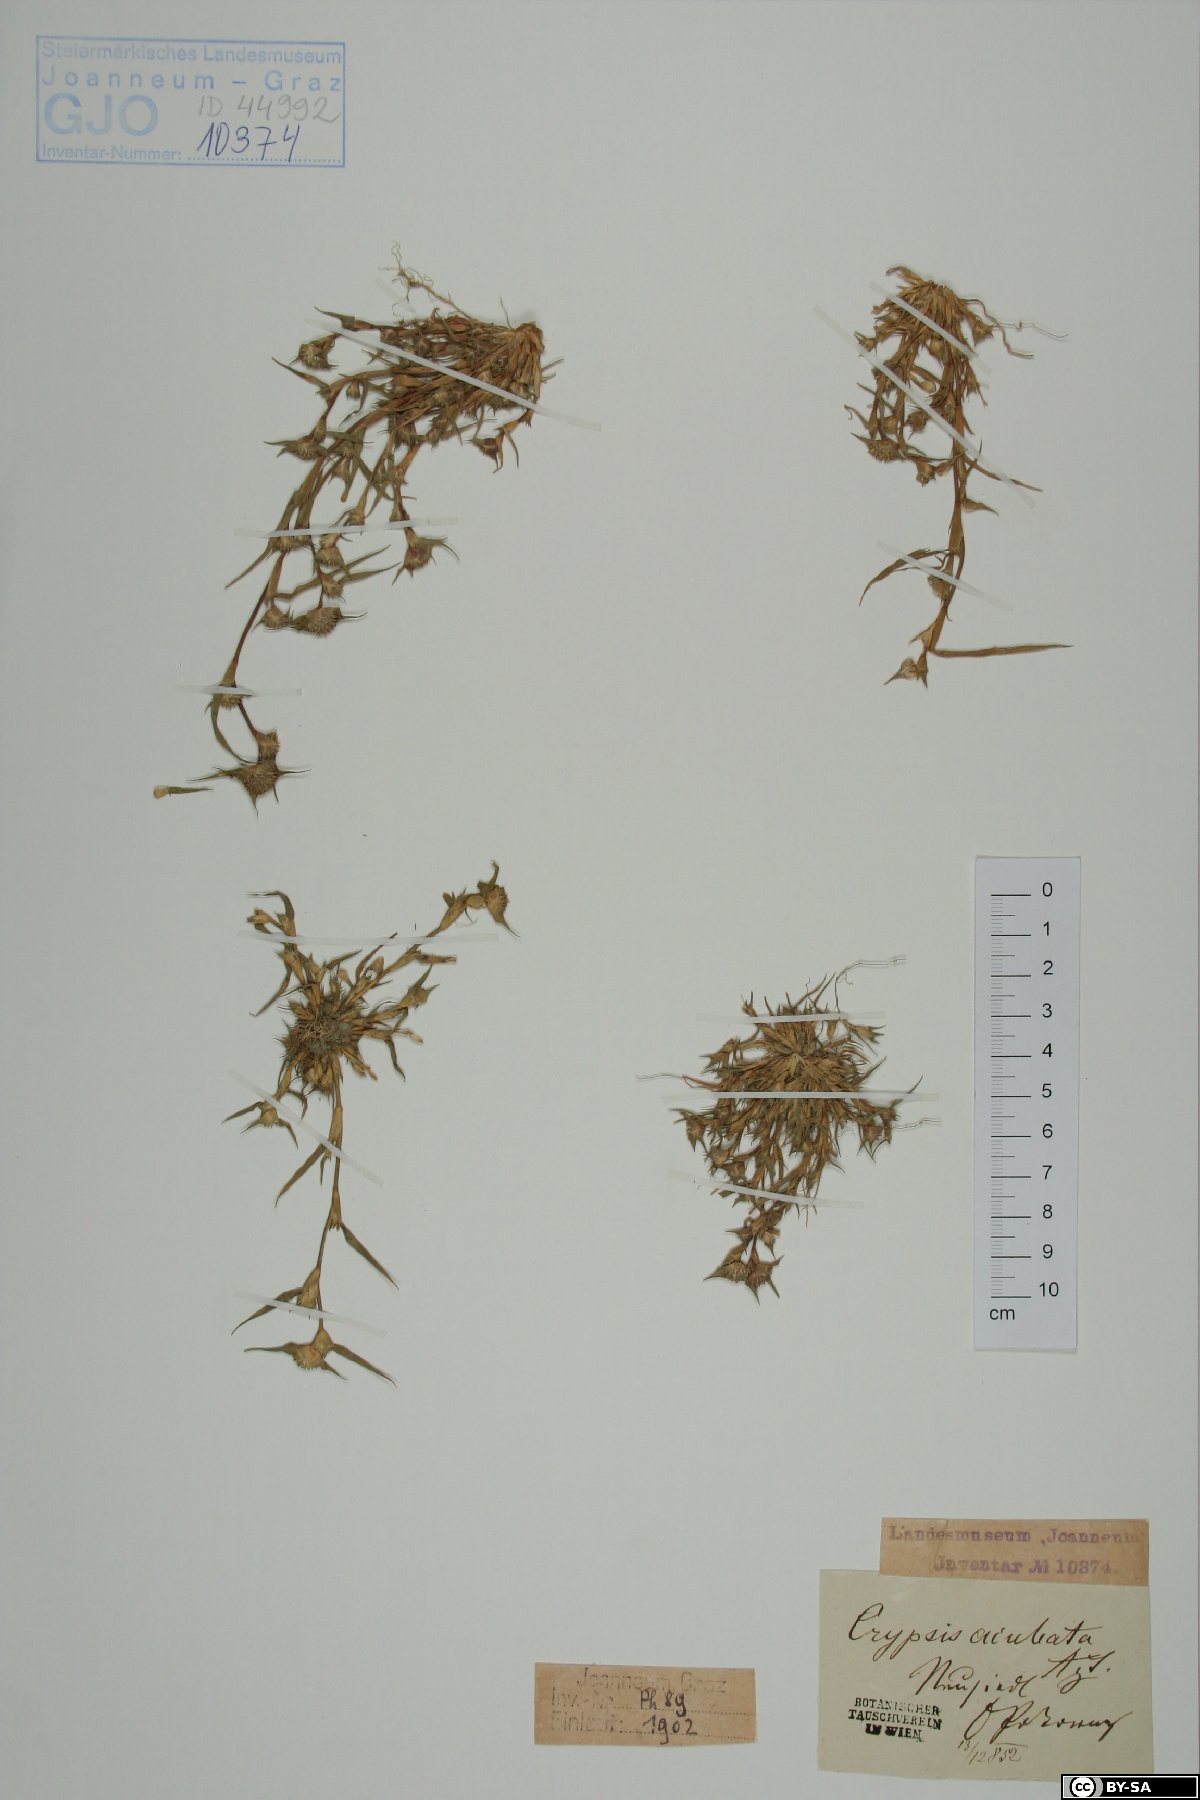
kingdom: Plantae
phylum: Tracheophyta
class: Liliopsida
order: Poales
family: Poaceae
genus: Sporobolus
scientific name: Sporobolus aculeatus
